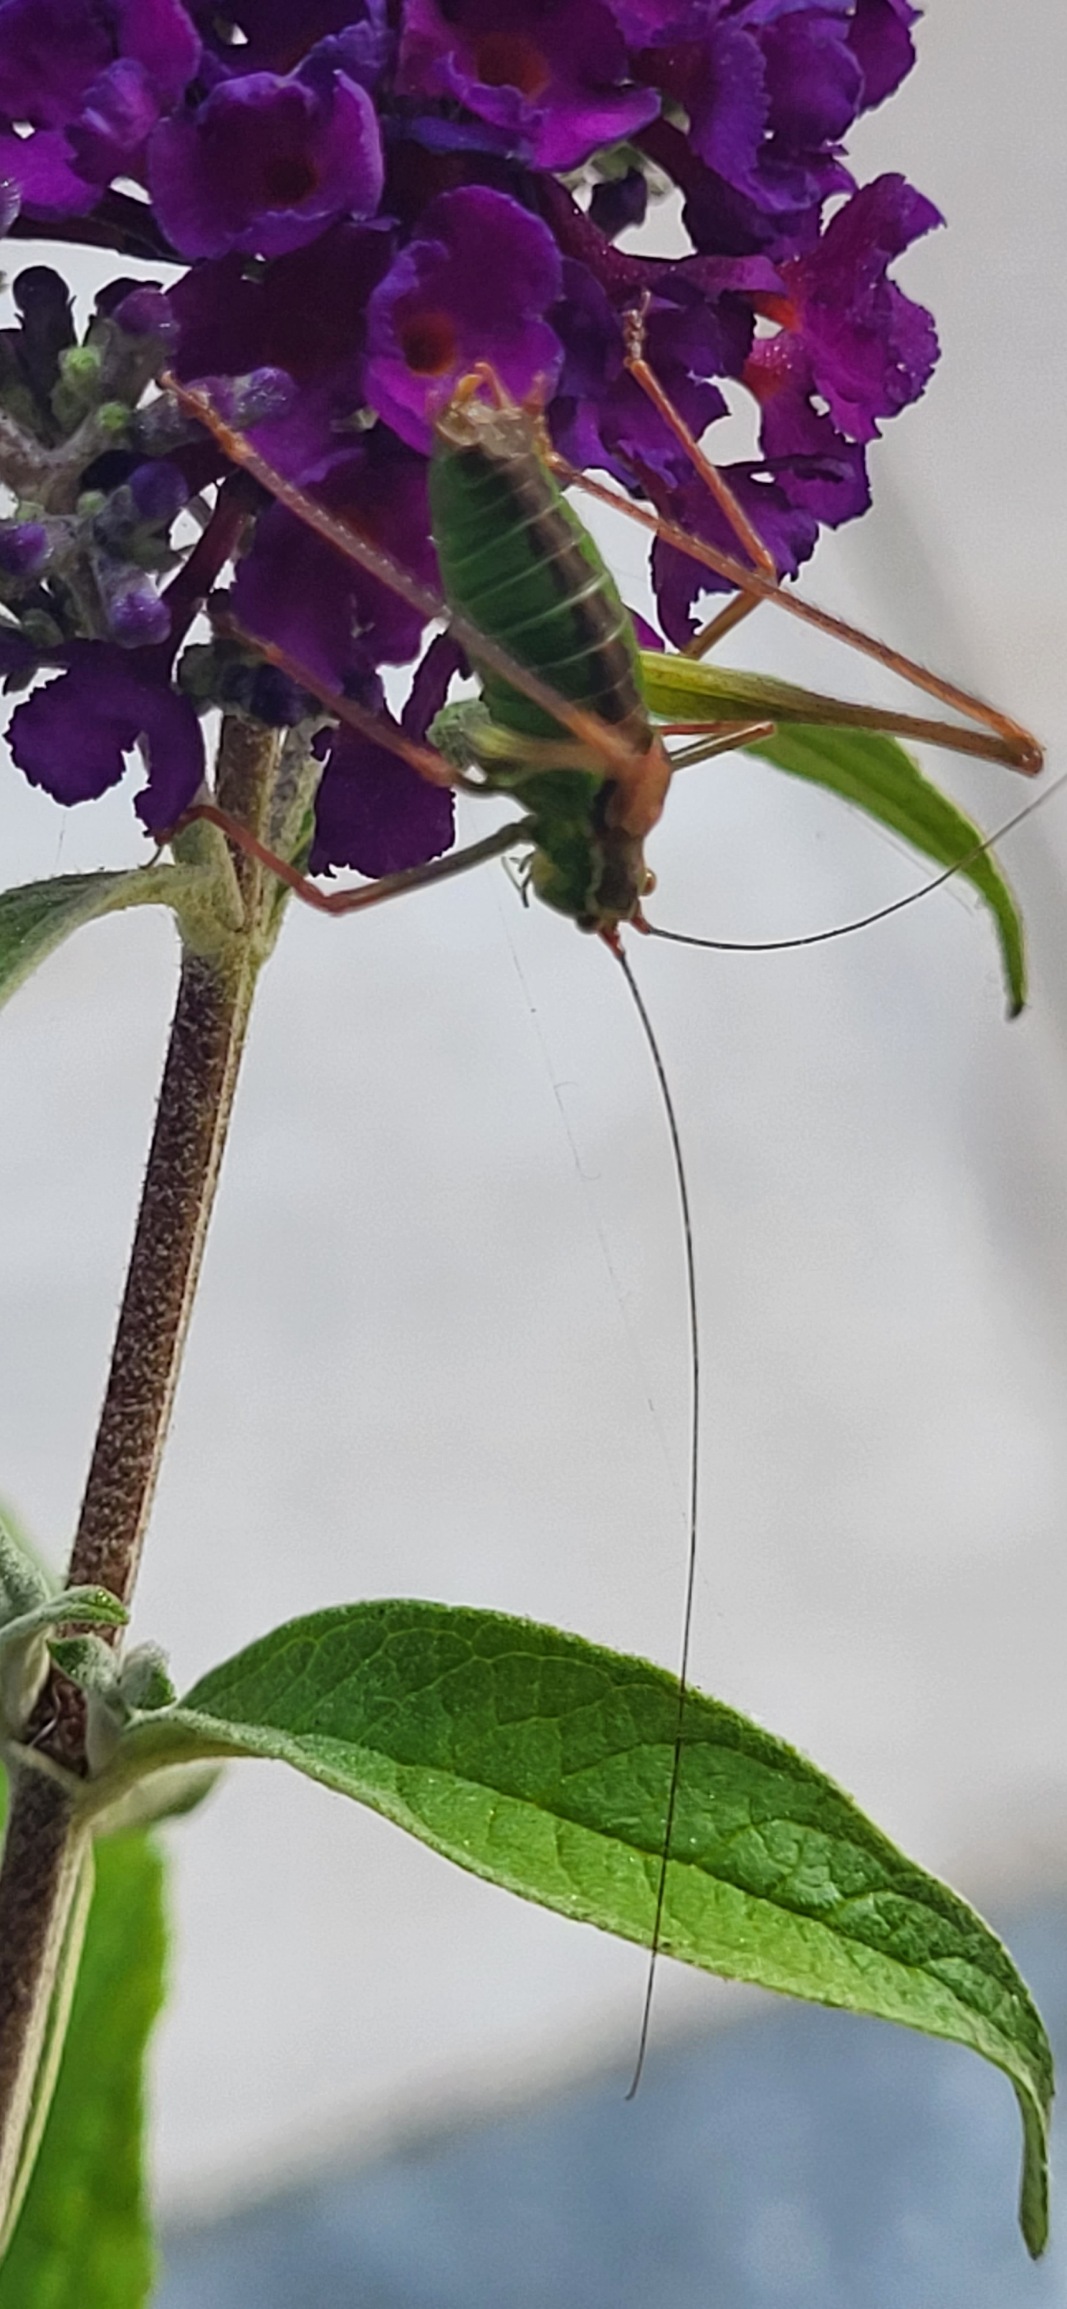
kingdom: Animalia
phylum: Arthropoda
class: Insecta
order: Orthoptera
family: Tettigoniidae
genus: Leptophyes
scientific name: Leptophyes punctatissima
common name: Krumknivgræshoppe
